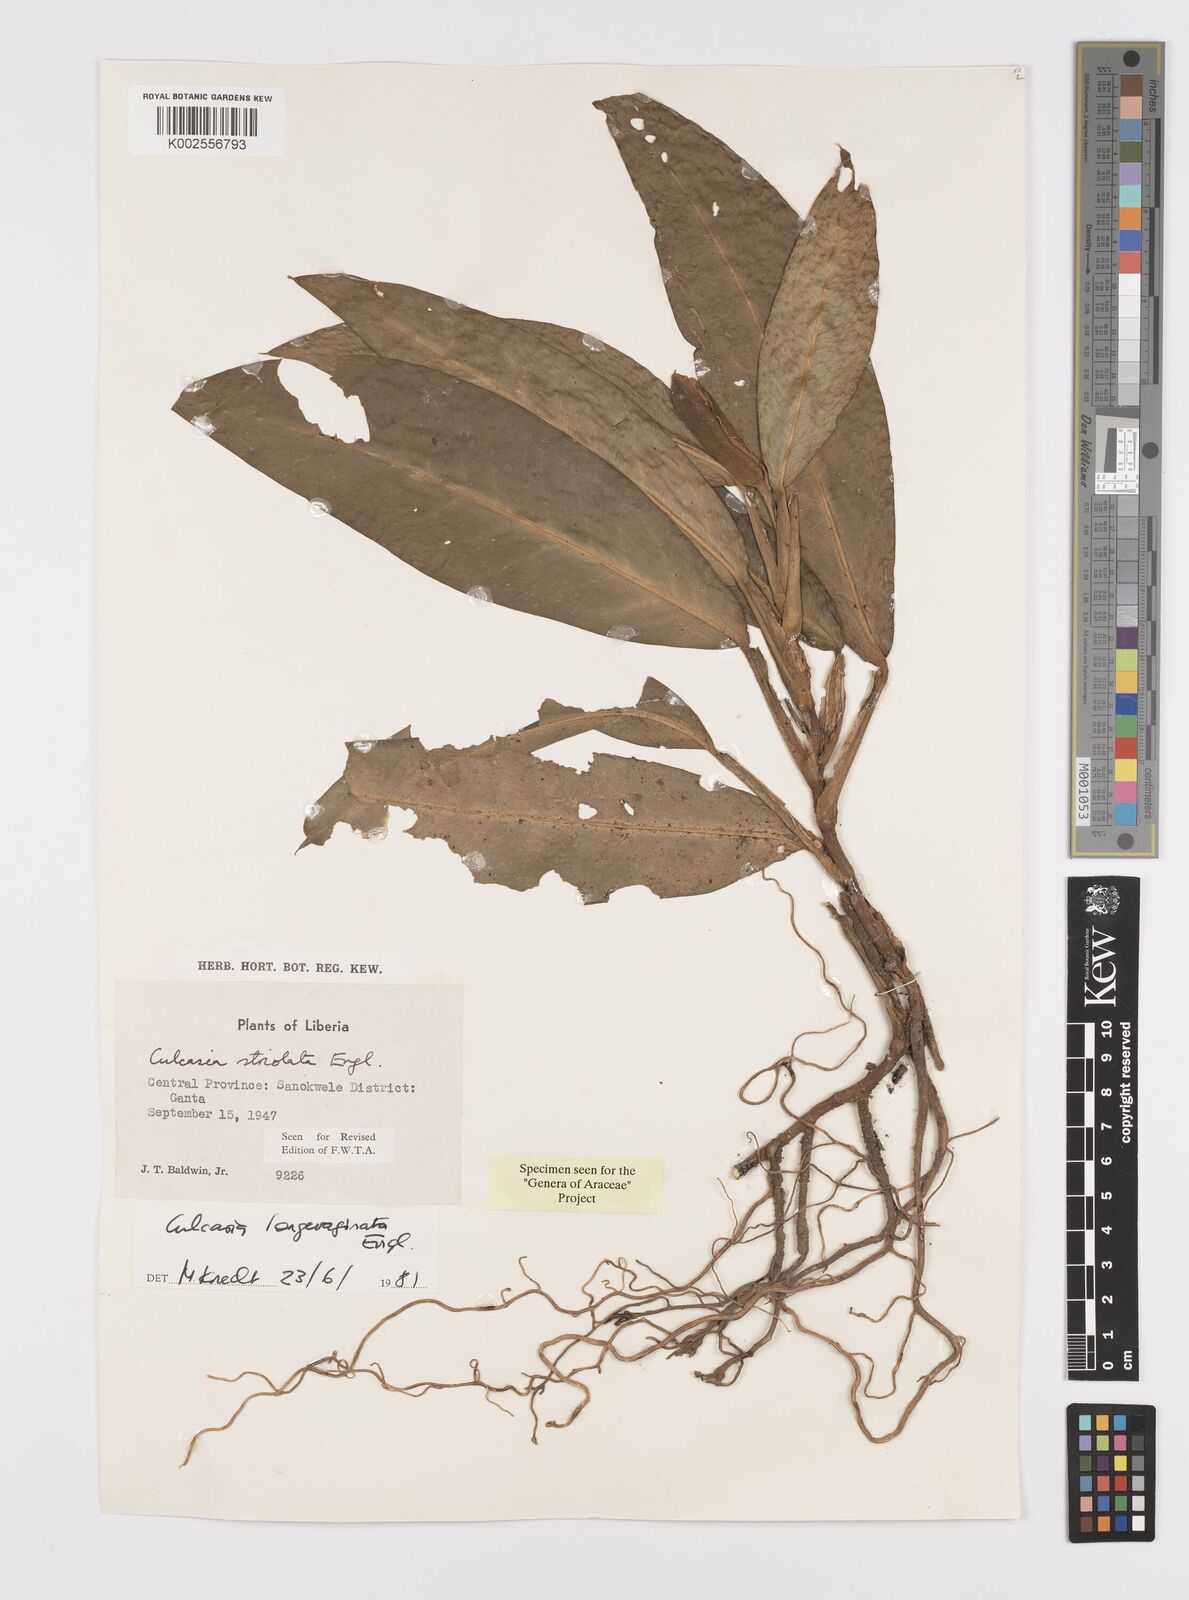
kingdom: Plantae
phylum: Tracheophyta
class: Liliopsida
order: Alismatales
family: Araceae
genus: Culcasia
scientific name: Culcasia striolata
